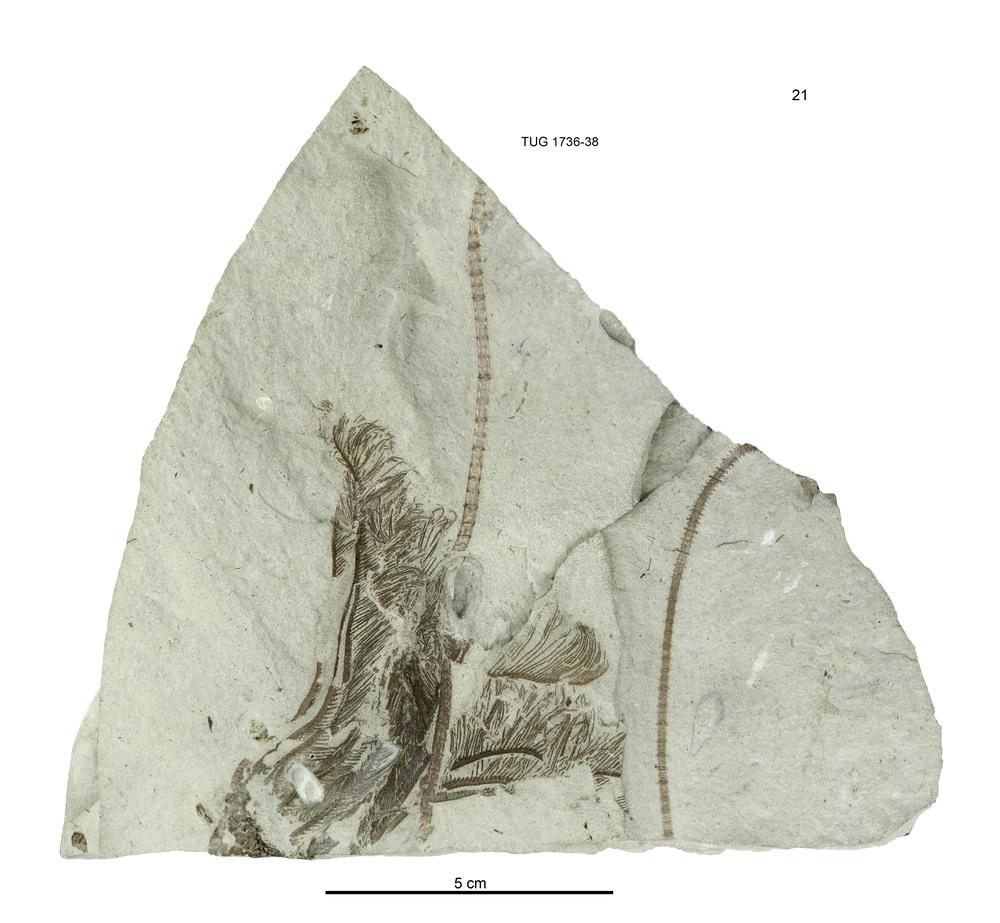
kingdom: Animalia
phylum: Echinodermata
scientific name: Echinodermata
